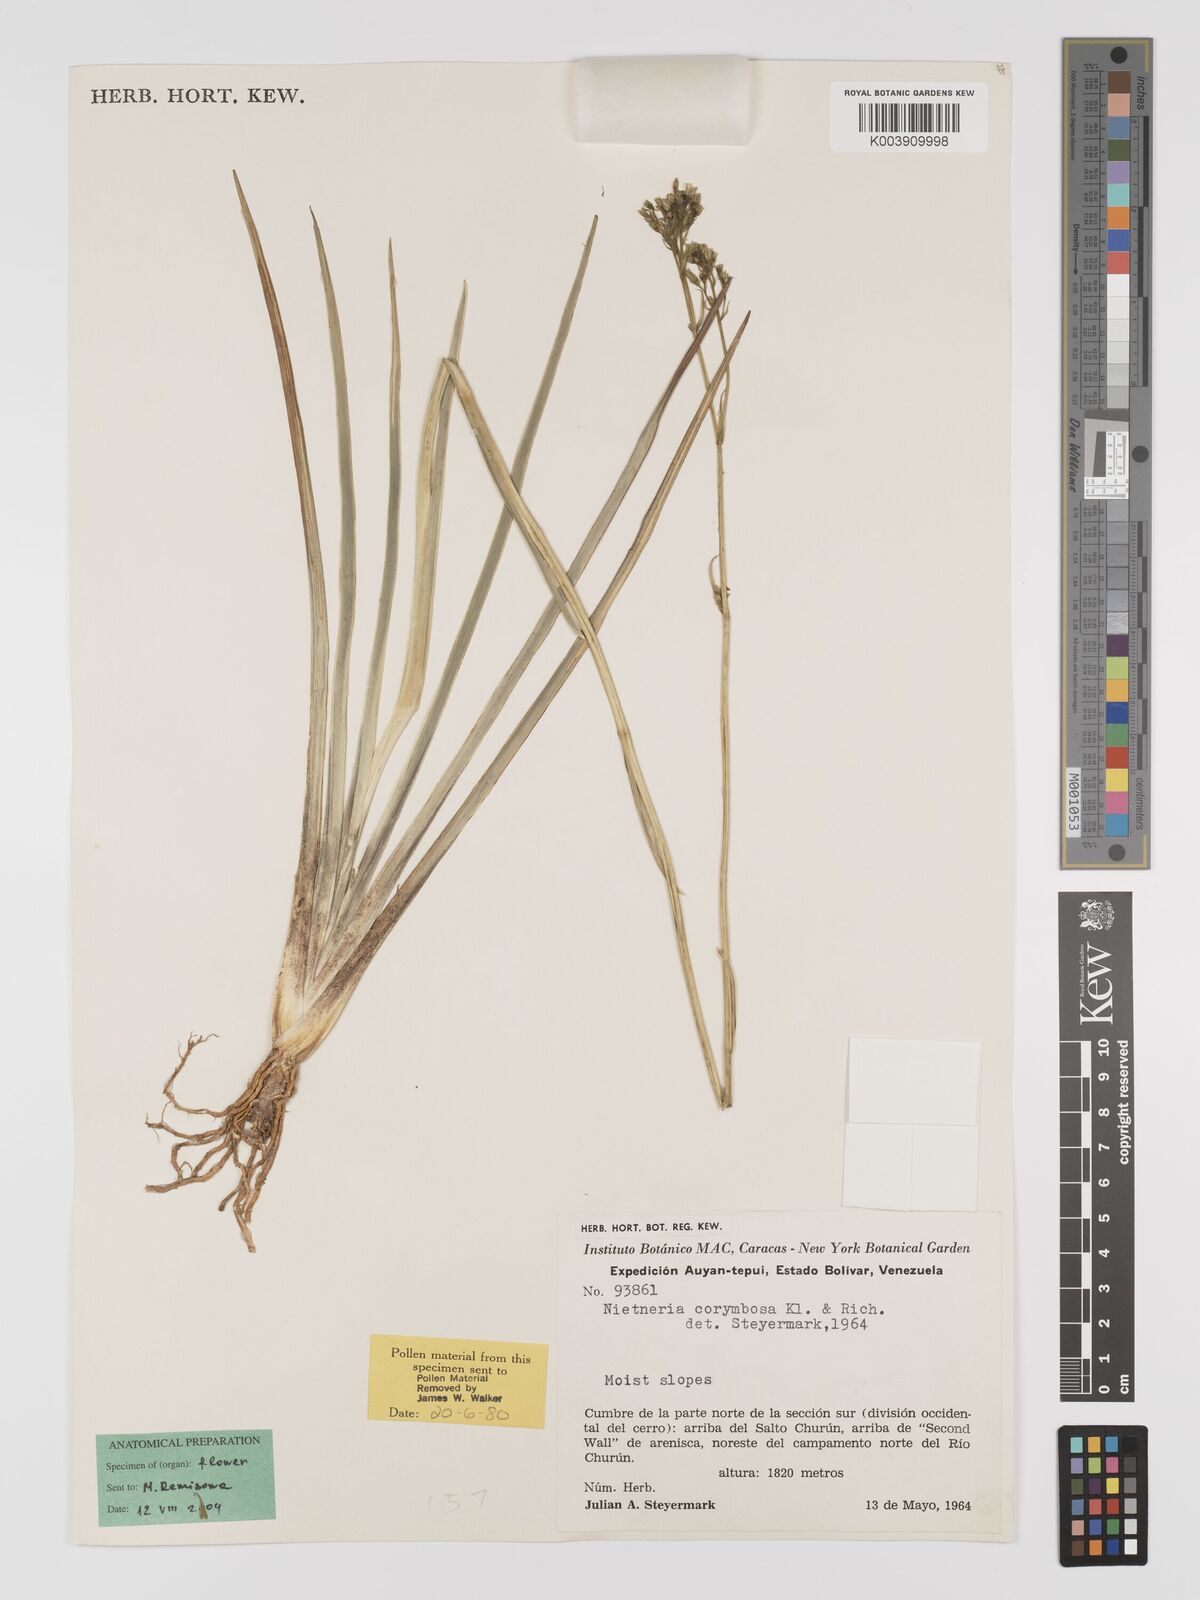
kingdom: Plantae
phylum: Tracheophyta
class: Liliopsida
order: Dioscoreales
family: Nartheciaceae
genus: Nietneria
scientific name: Nietneria corymbosa
